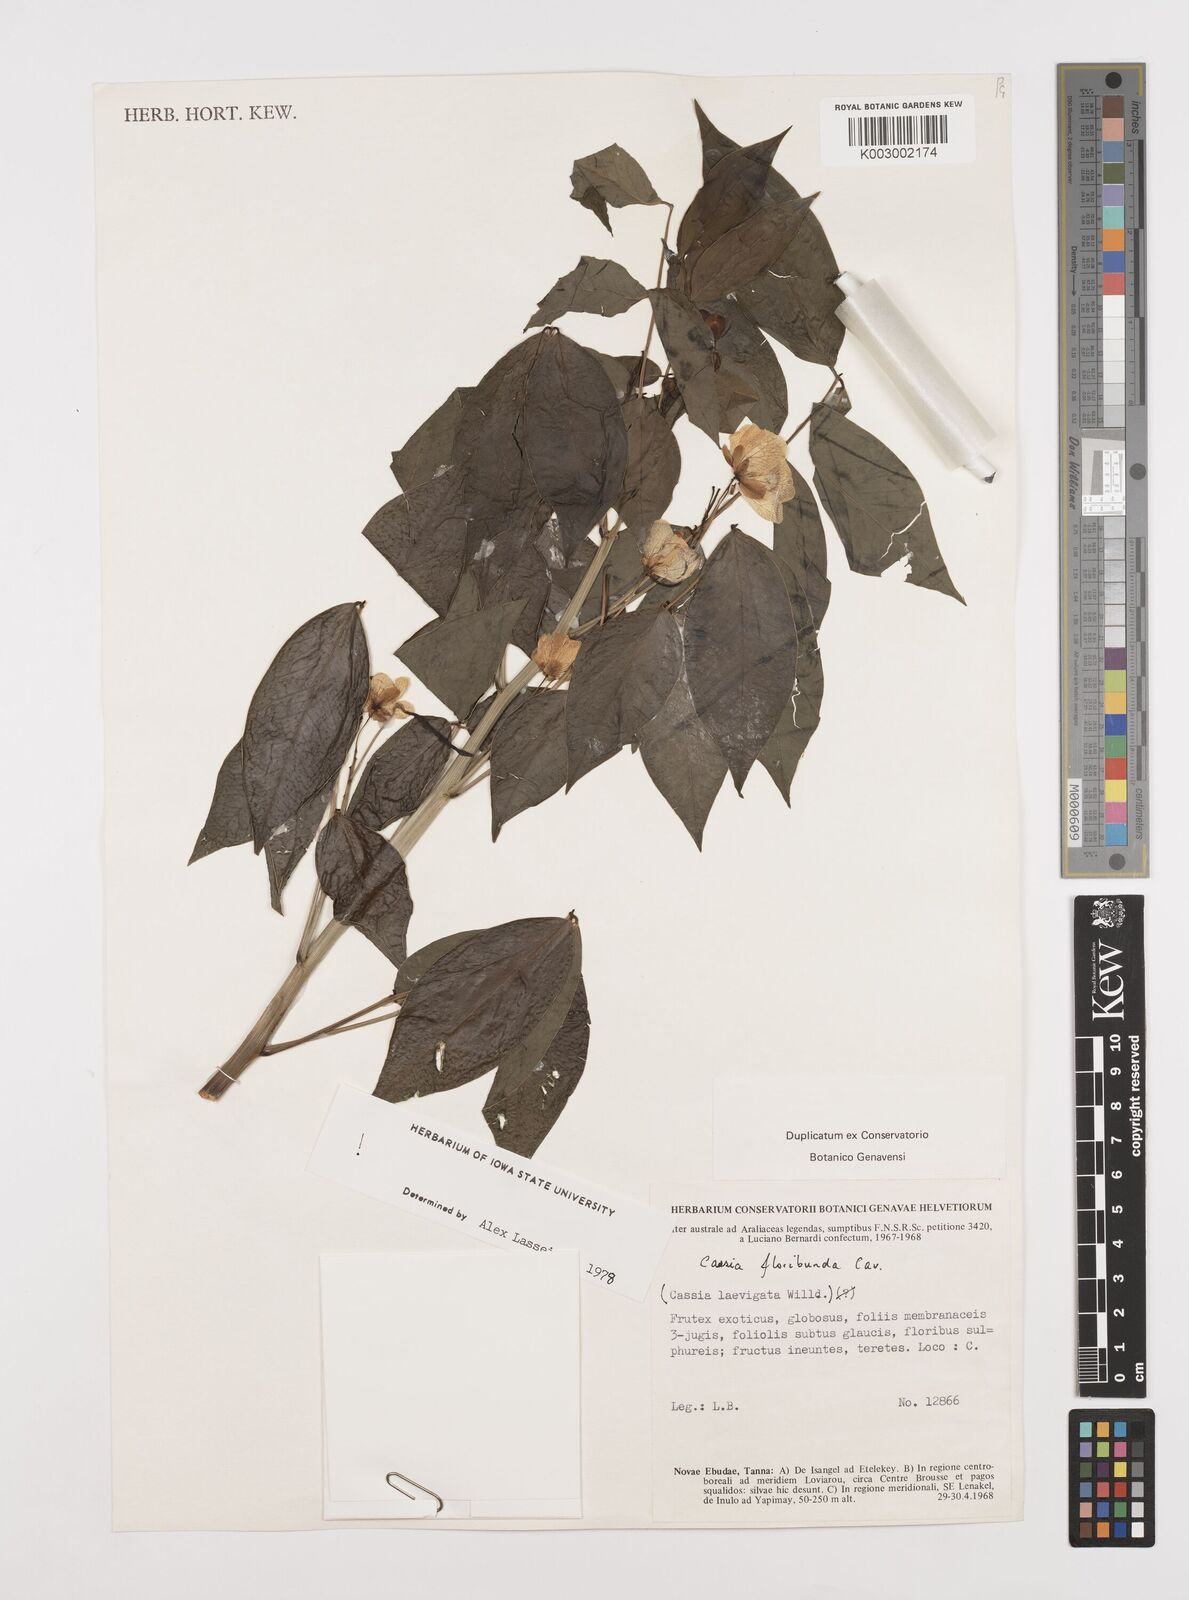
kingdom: Plantae
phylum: Tracheophyta
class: Magnoliopsida
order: Fabales
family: Fabaceae
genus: Senna
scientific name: Senna floribunda
